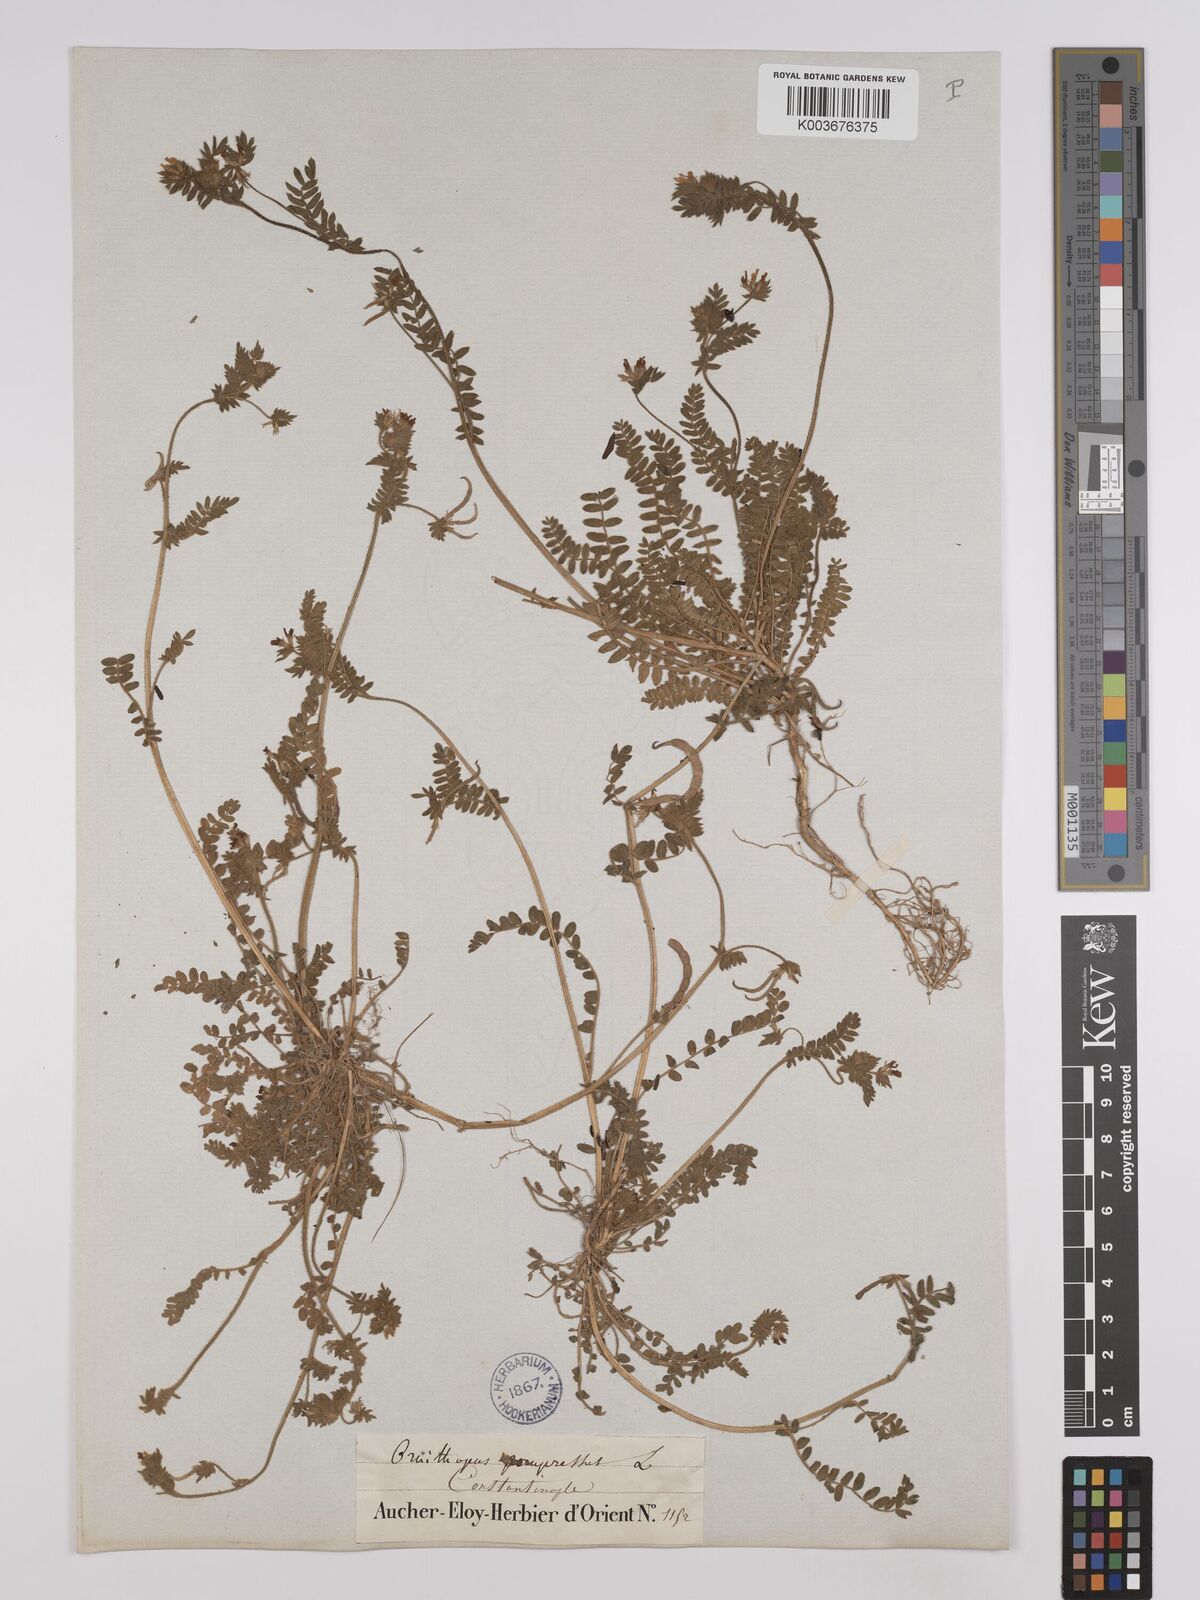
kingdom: Plantae
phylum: Tracheophyta
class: Magnoliopsida
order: Fabales
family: Fabaceae
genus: Ornithopus
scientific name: Ornithopus compressus
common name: Yellow serradella
